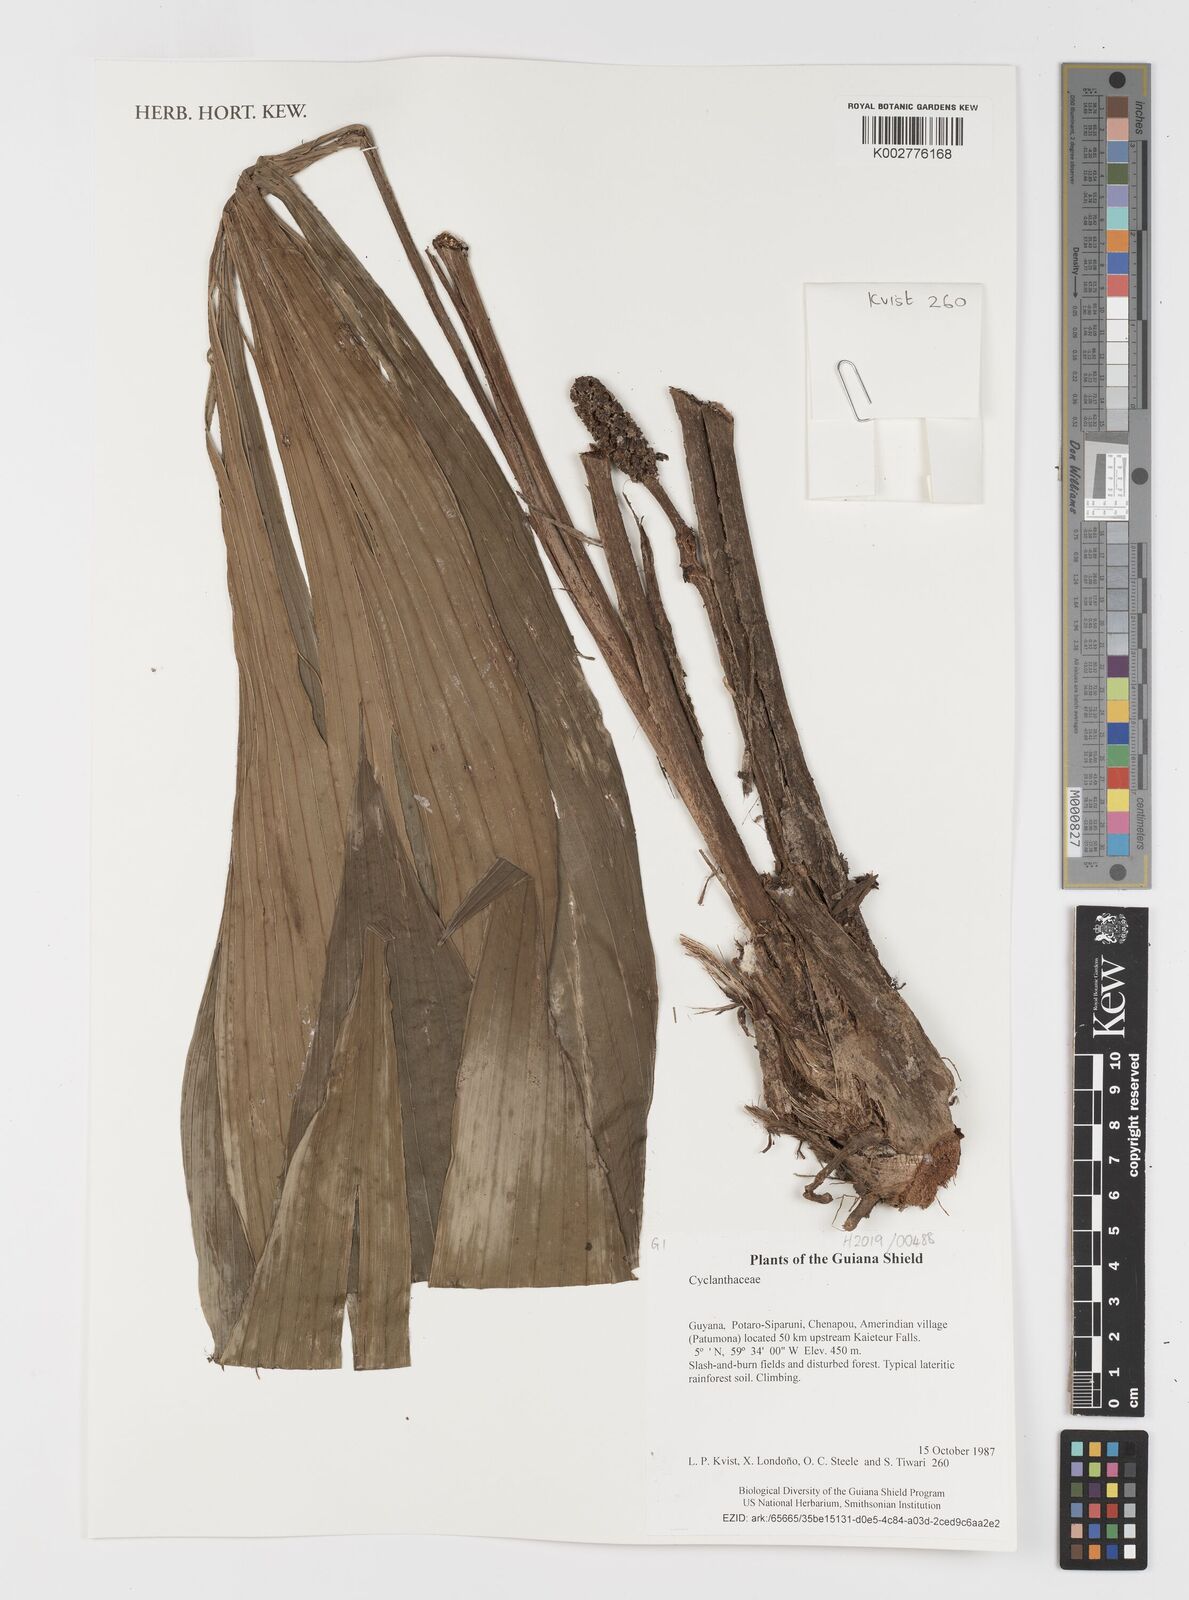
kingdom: Plantae
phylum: Tracheophyta
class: Liliopsida
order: Pandanales
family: Cyclanthaceae
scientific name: Cyclanthaceae
